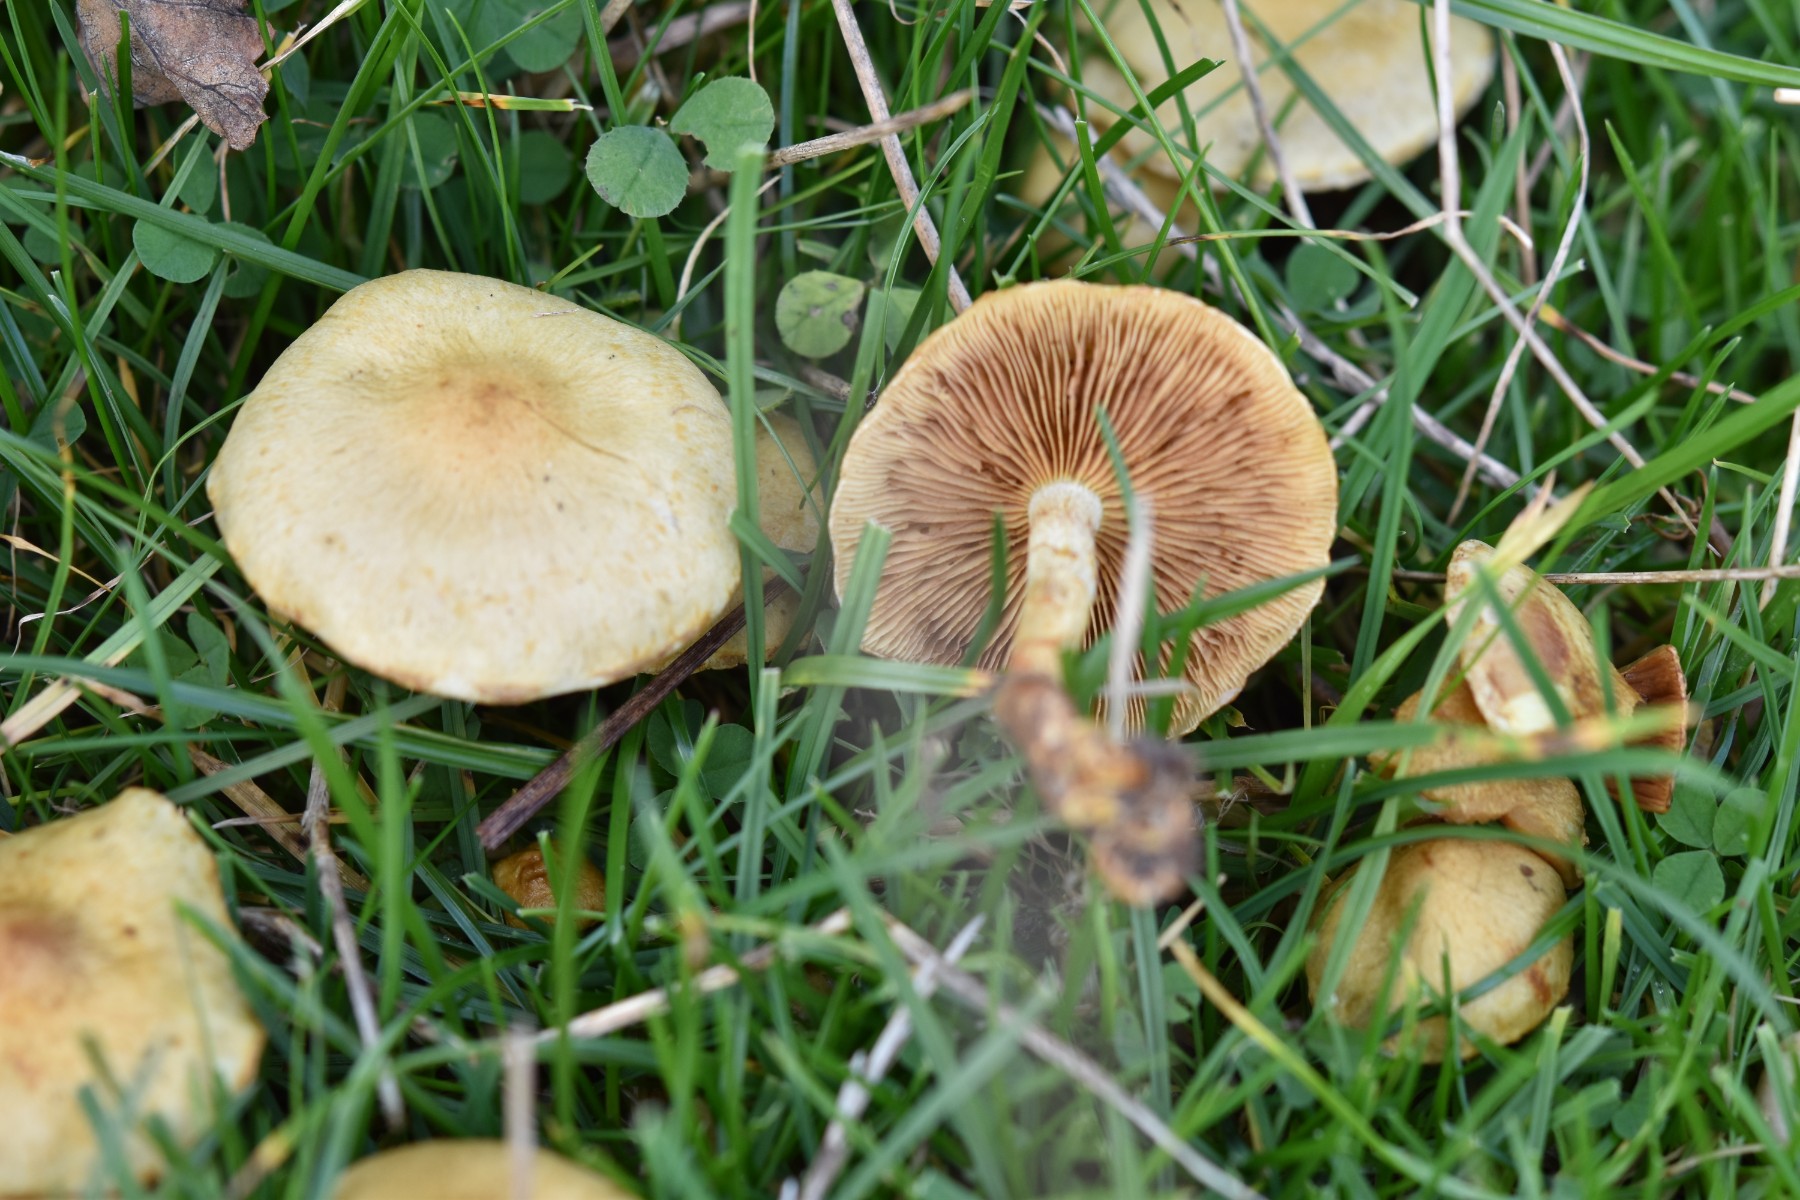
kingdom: Fungi
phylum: Basidiomycota
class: Agaricomycetes
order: Agaricales
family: Strophariaceae
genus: Pholiota
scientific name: Pholiota gummosa
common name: grøngul skælhat
